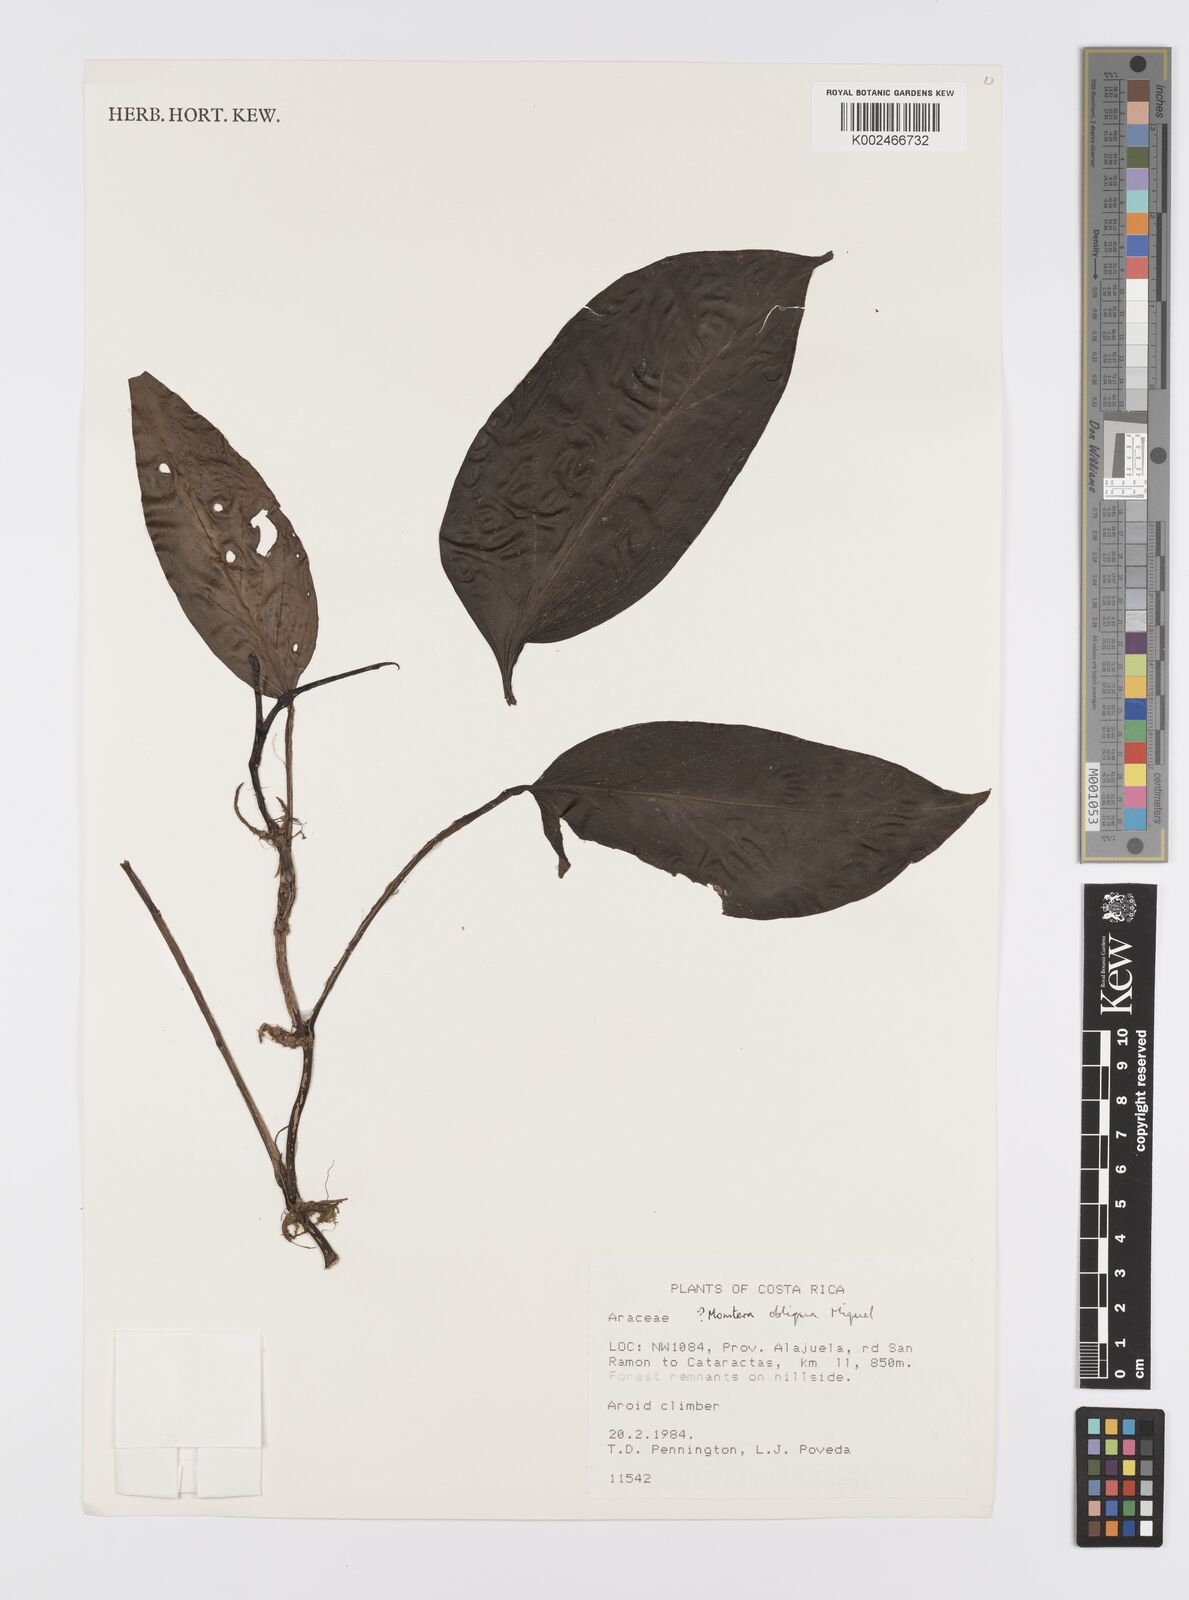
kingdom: Plantae
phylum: Tracheophyta
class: Liliopsida
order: Alismatales
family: Araceae
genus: Monstera
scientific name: Monstera obliqua
